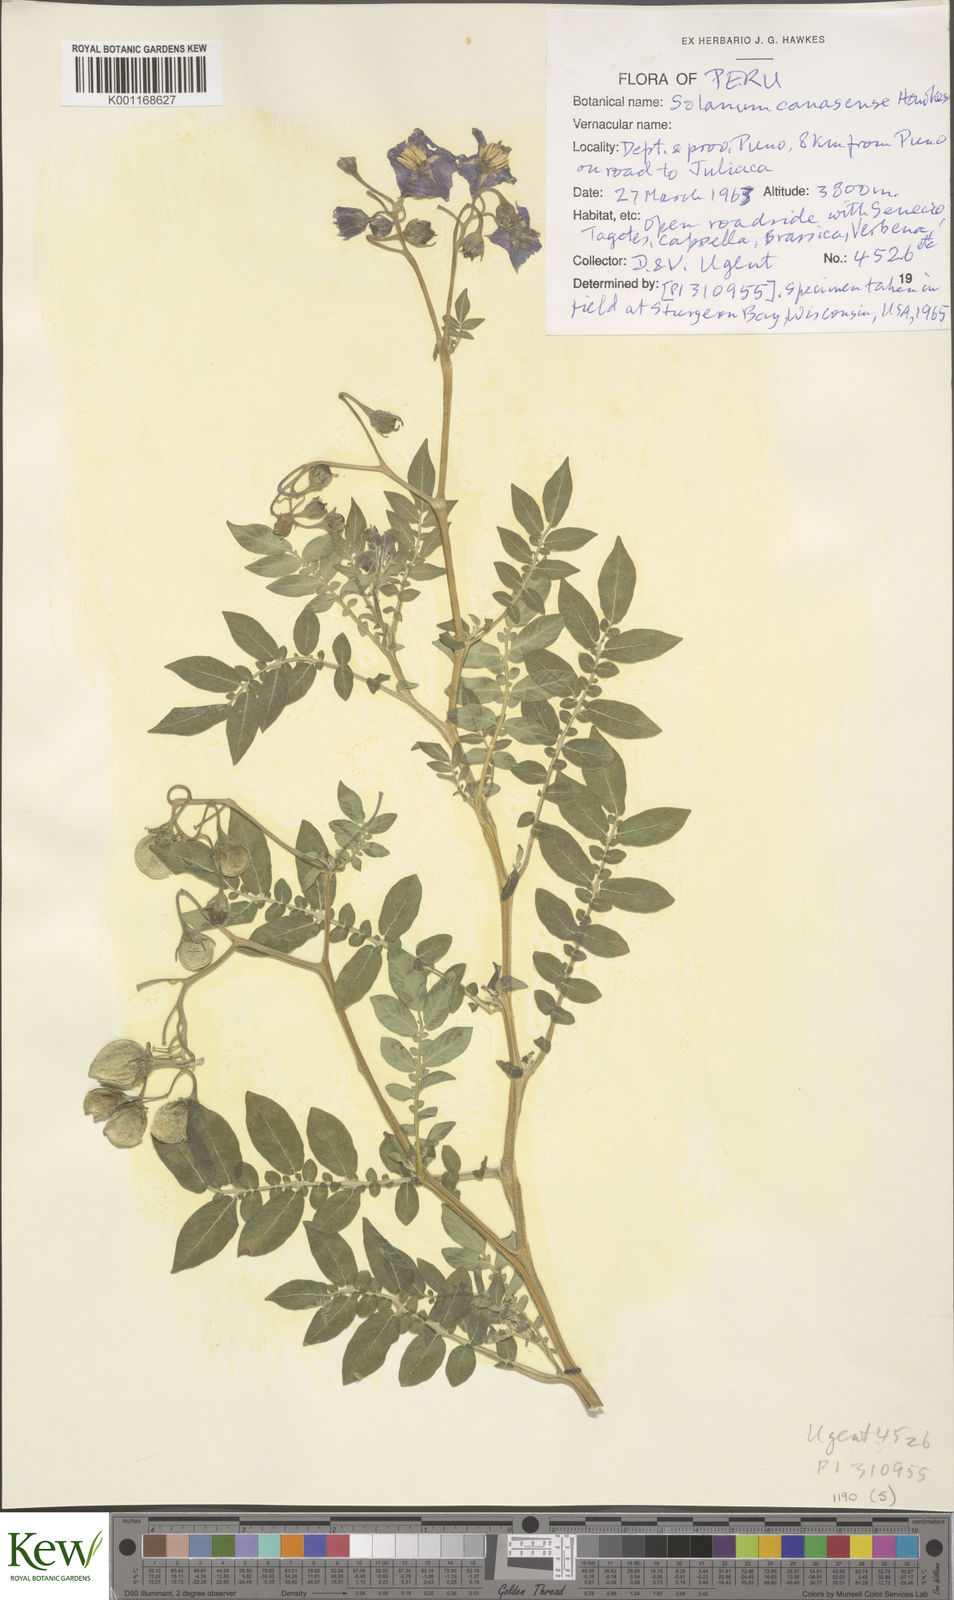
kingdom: Plantae
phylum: Tracheophyta
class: Magnoliopsida
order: Solanales
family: Solanaceae
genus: Solanum
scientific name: Solanum candolleanum
